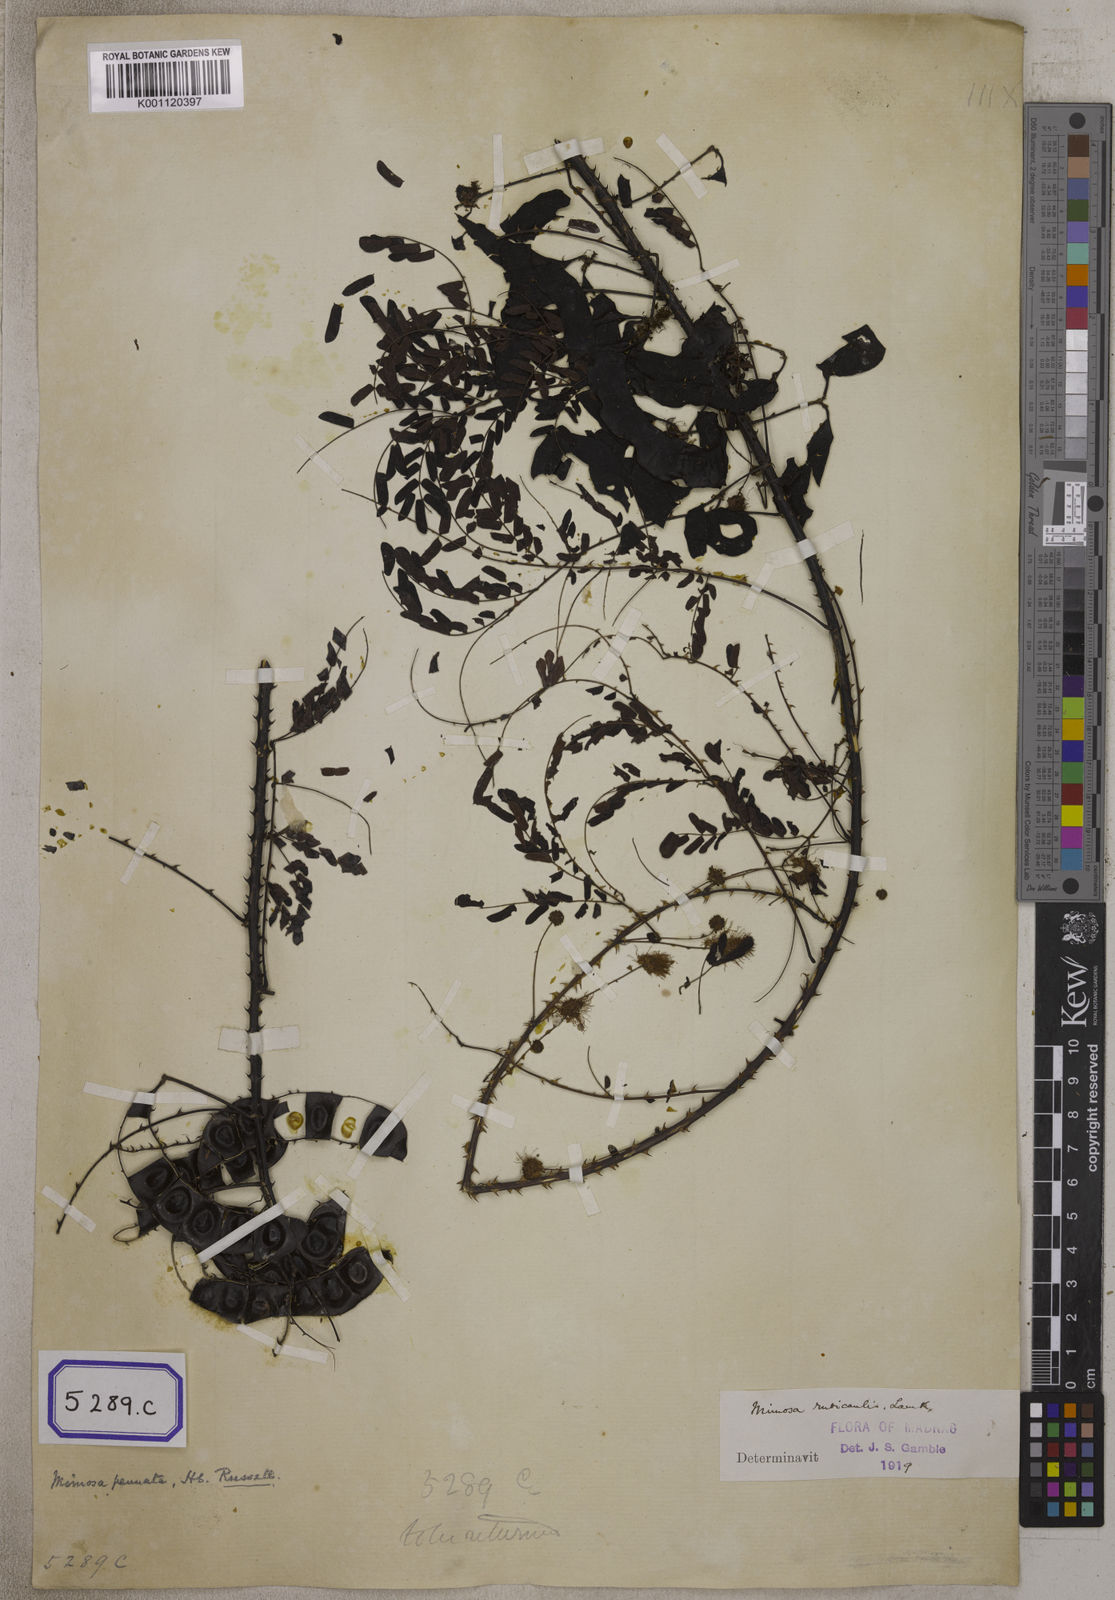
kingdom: Plantae
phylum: Tracheophyta
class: Magnoliopsida
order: Fabales
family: Fabaceae
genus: Mimosa
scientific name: Mimosa rubicaulis
